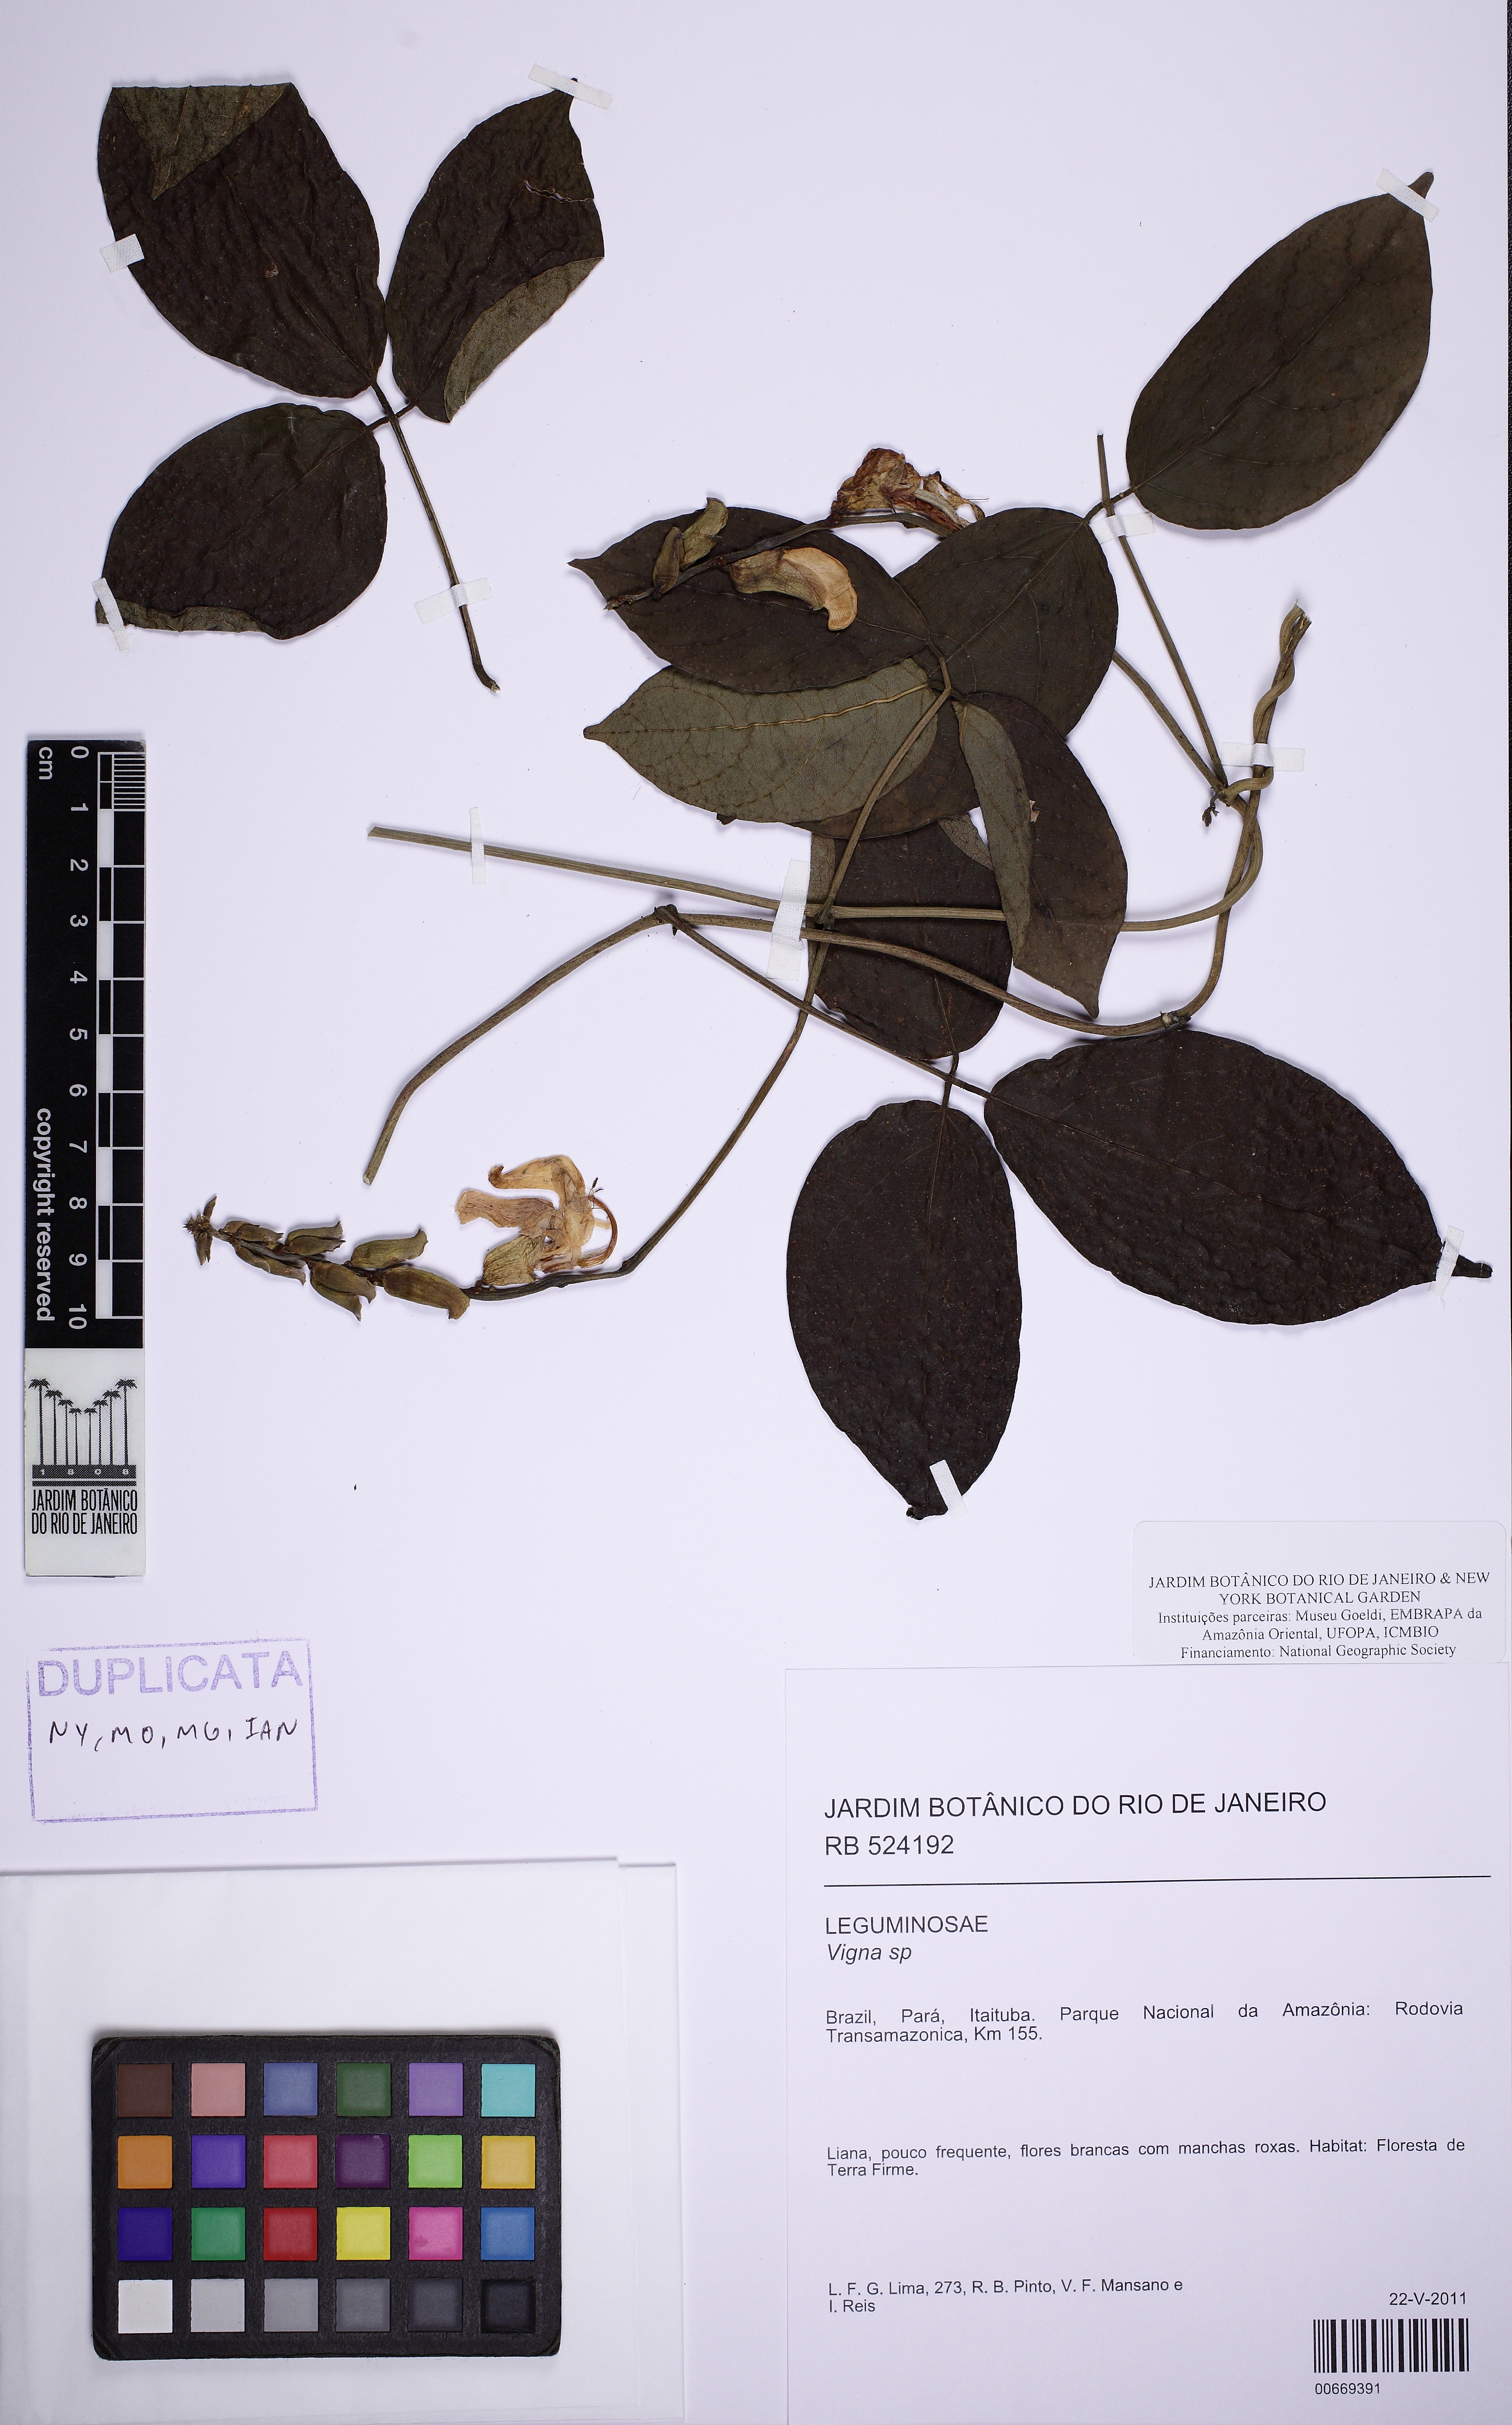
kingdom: Plantae
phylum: Tracheophyta
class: Magnoliopsida
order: Fabales
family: Fabaceae
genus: Canavalia
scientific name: Canavalia grandiflora
